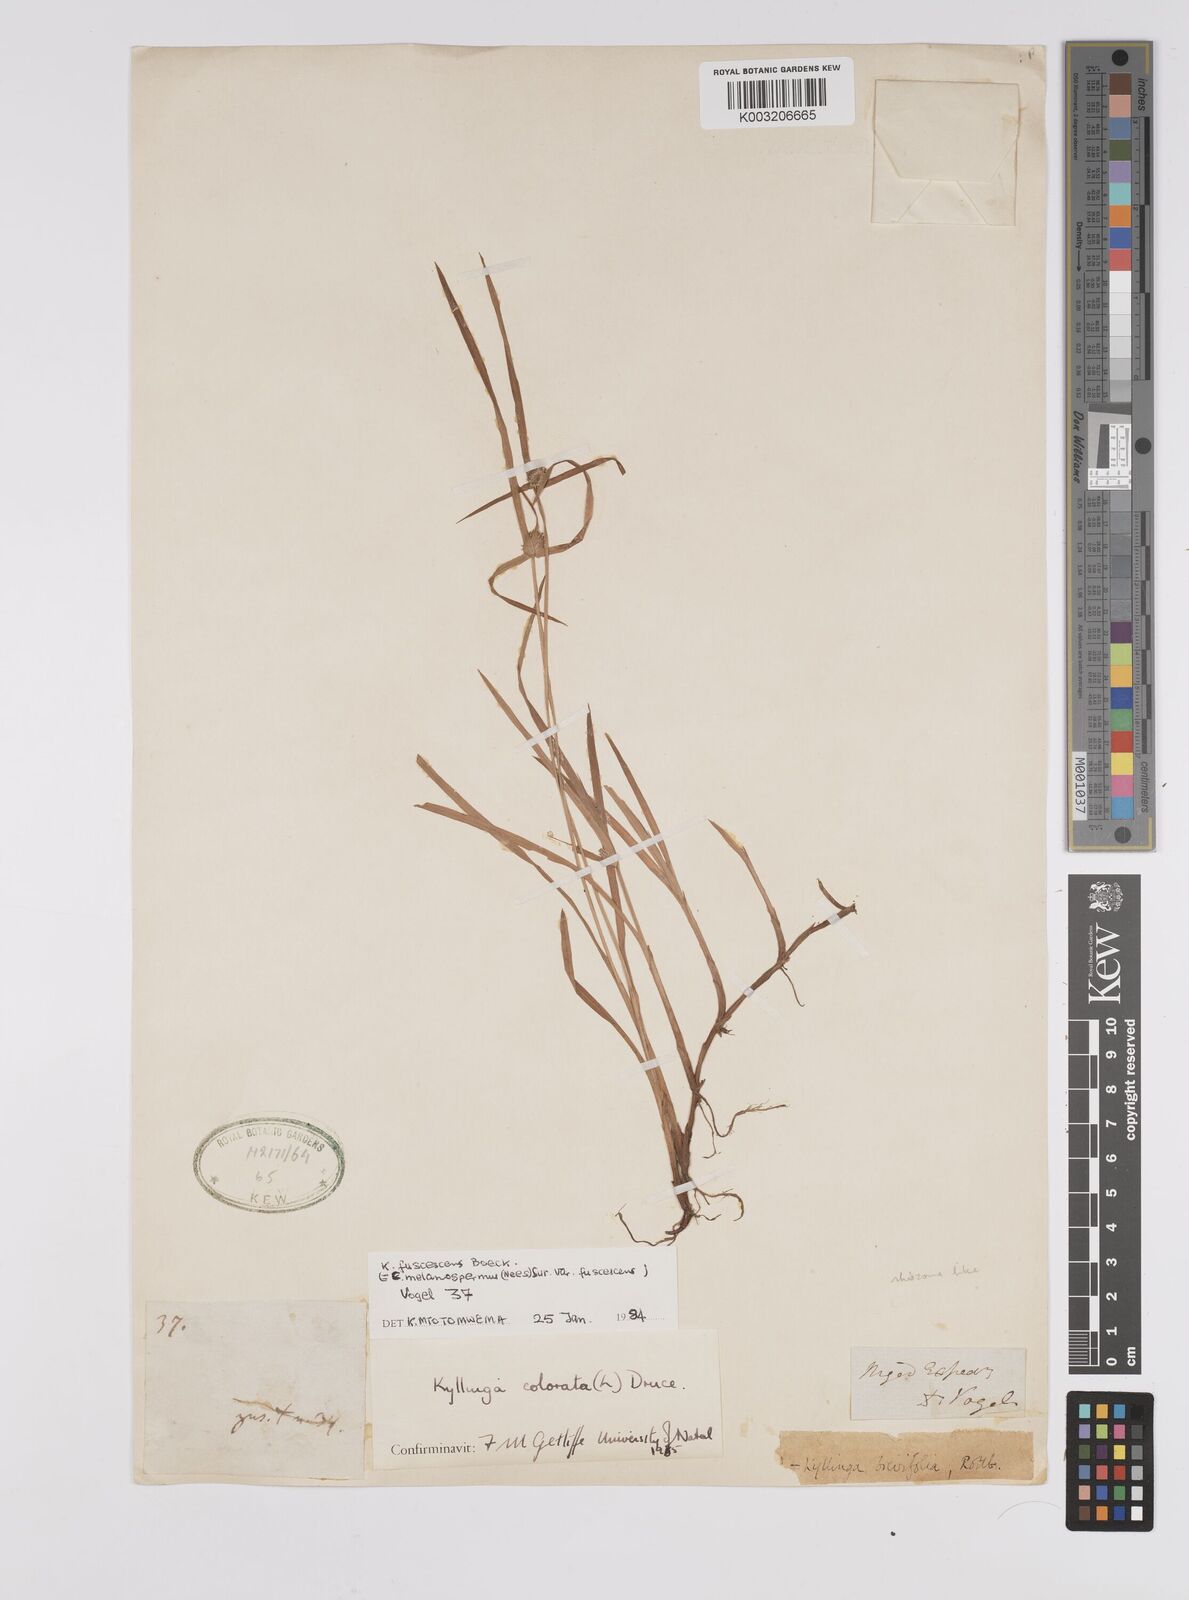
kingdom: Plantae
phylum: Tracheophyta
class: Liliopsida
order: Poales
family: Cyperaceae
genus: Cyperus
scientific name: Cyperus brevifolius
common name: Globe kyllinga
